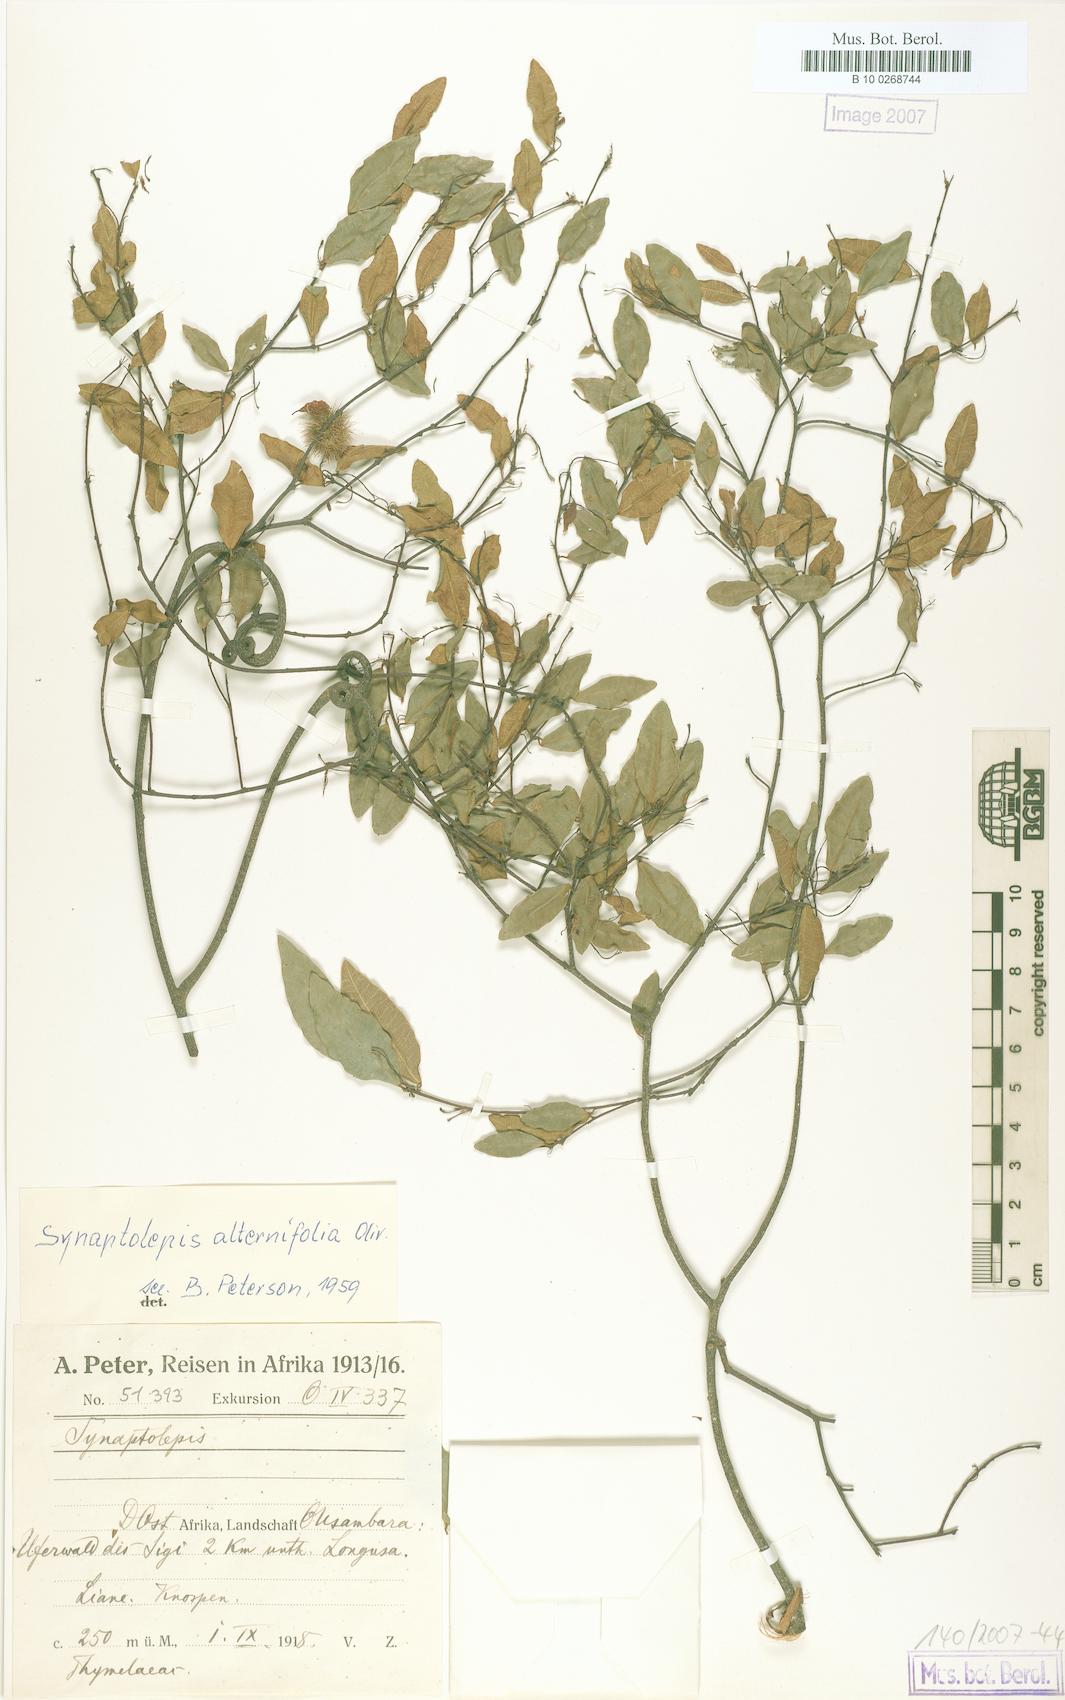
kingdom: Plantae
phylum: Tracheophyta
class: Magnoliopsida
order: Malvales
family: Thymelaeaceae
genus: Synaptolepis
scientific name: Synaptolepis alternifolia
